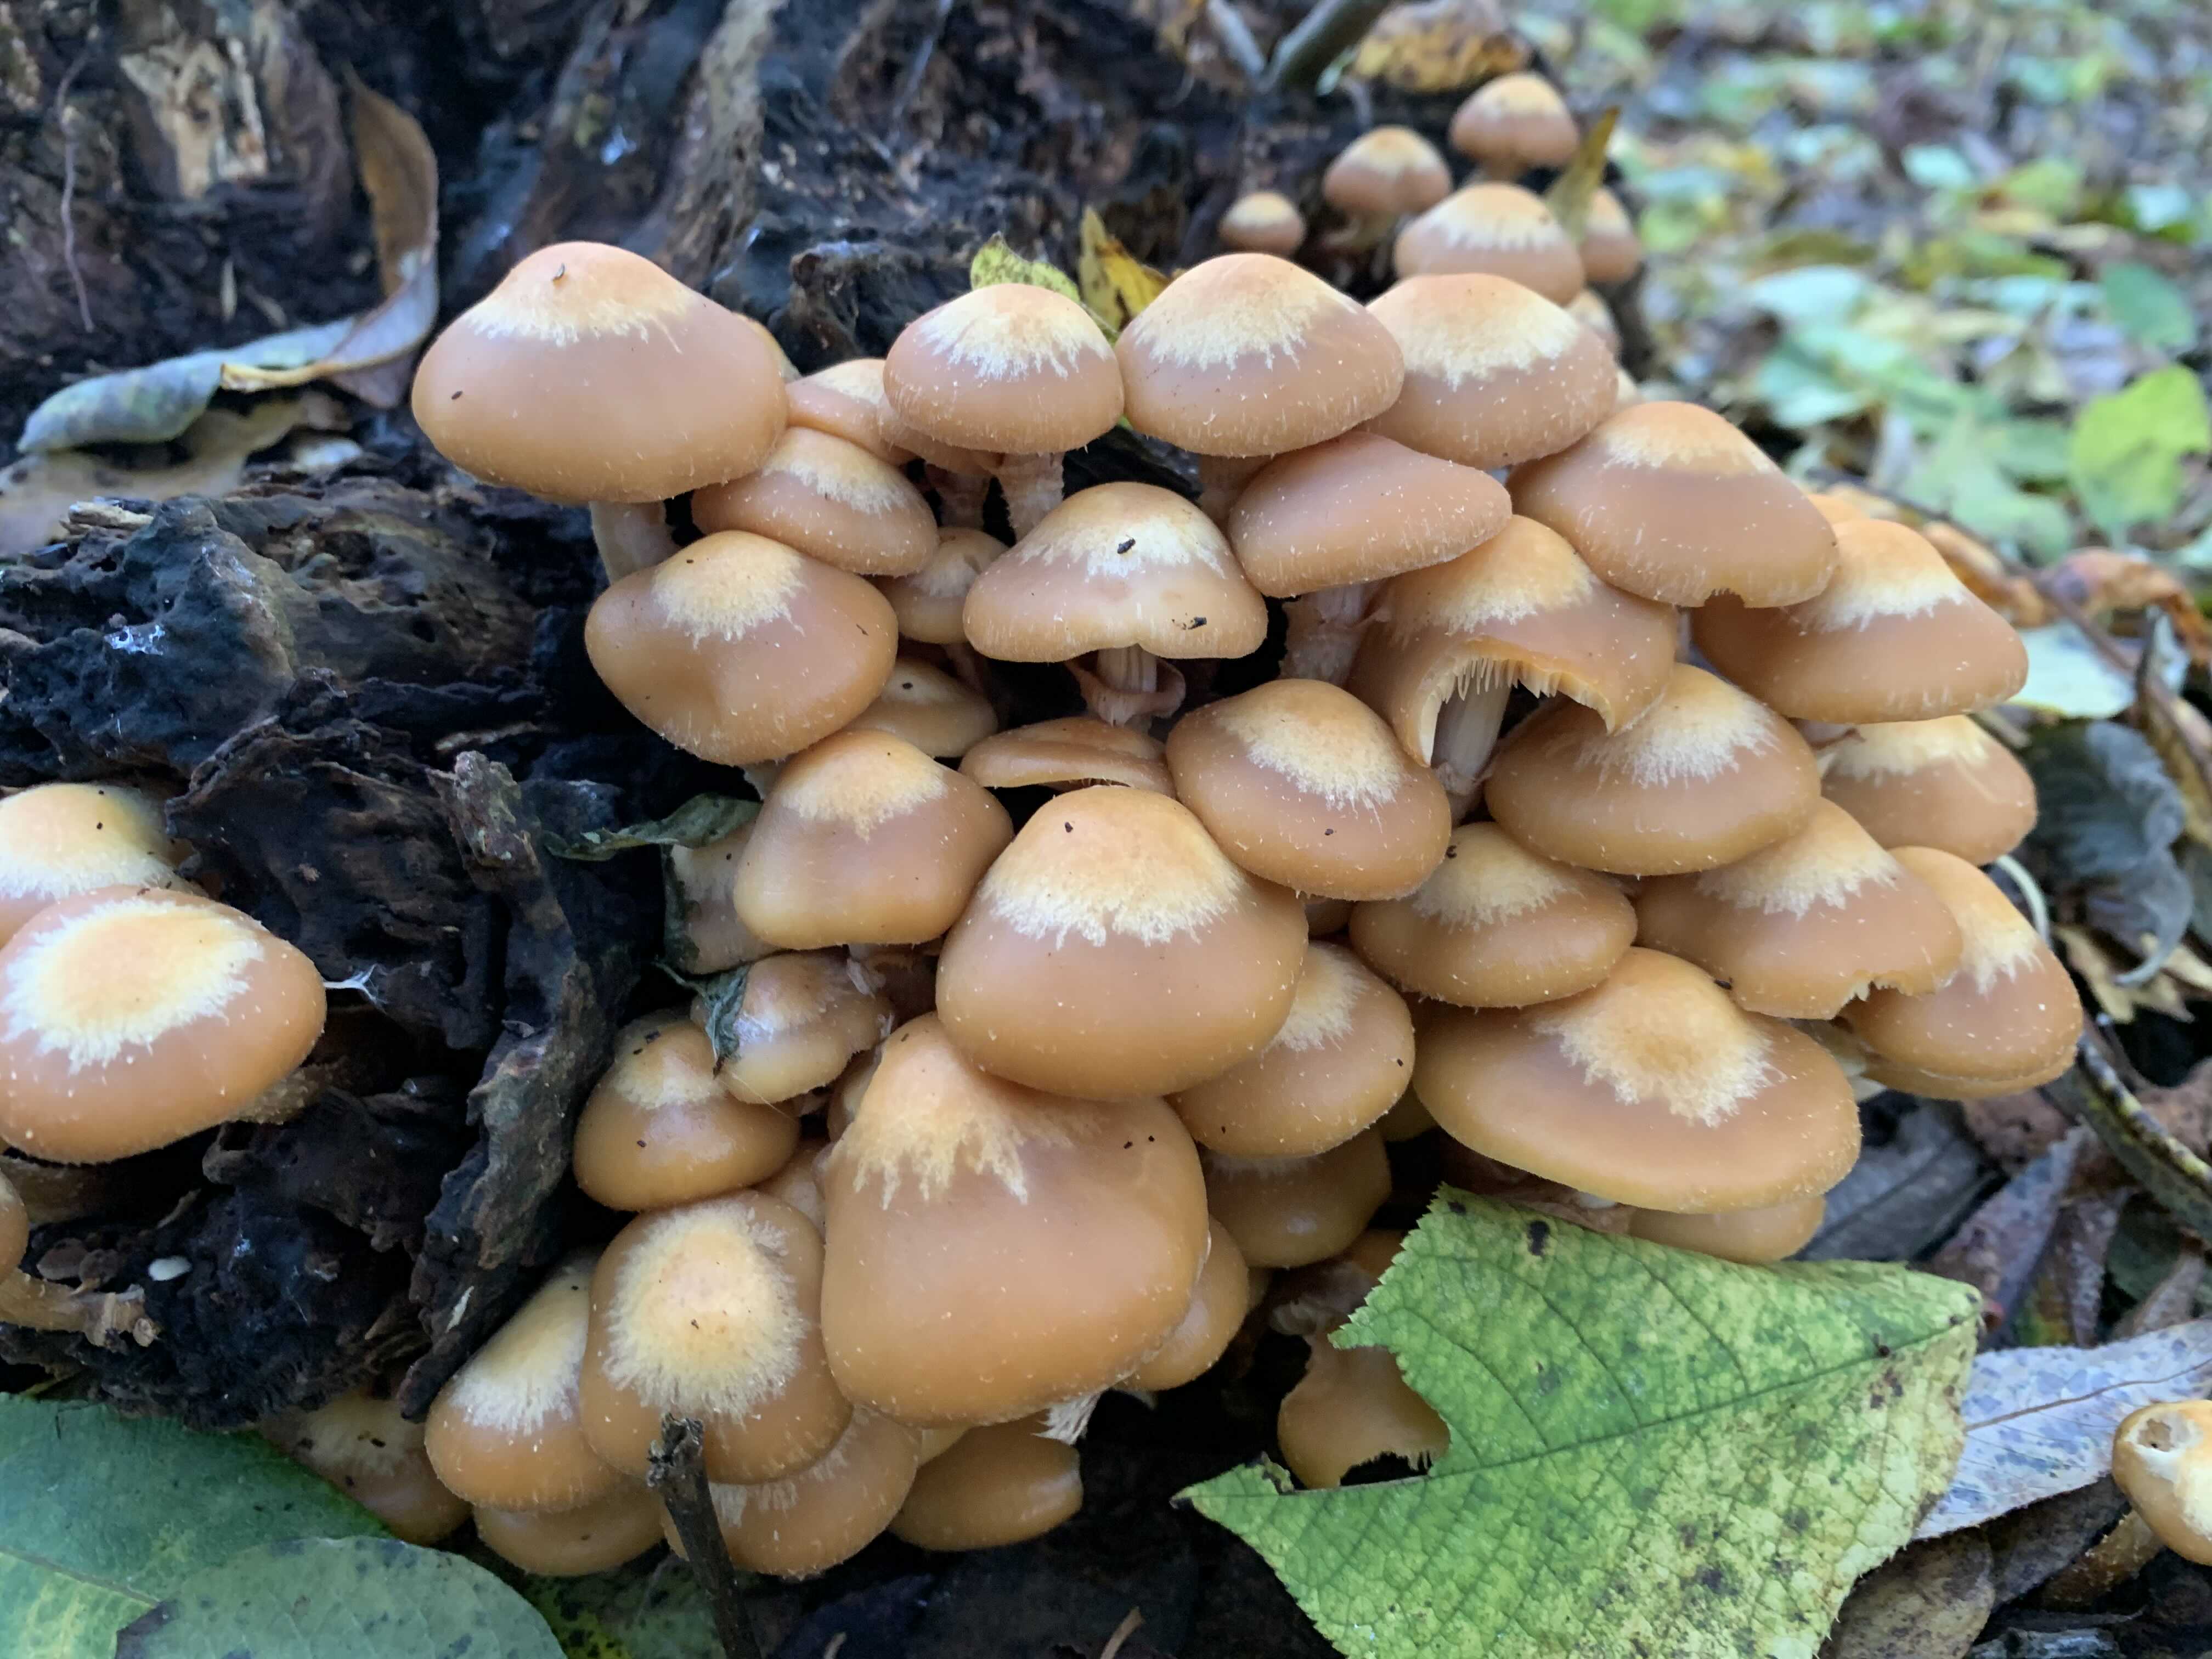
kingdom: Fungi
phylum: Basidiomycota
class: Agaricomycetes
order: Agaricales
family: Strophariaceae
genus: Kuehneromyces
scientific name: Kuehneromyces mutabilis
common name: foranderlig skælhat
